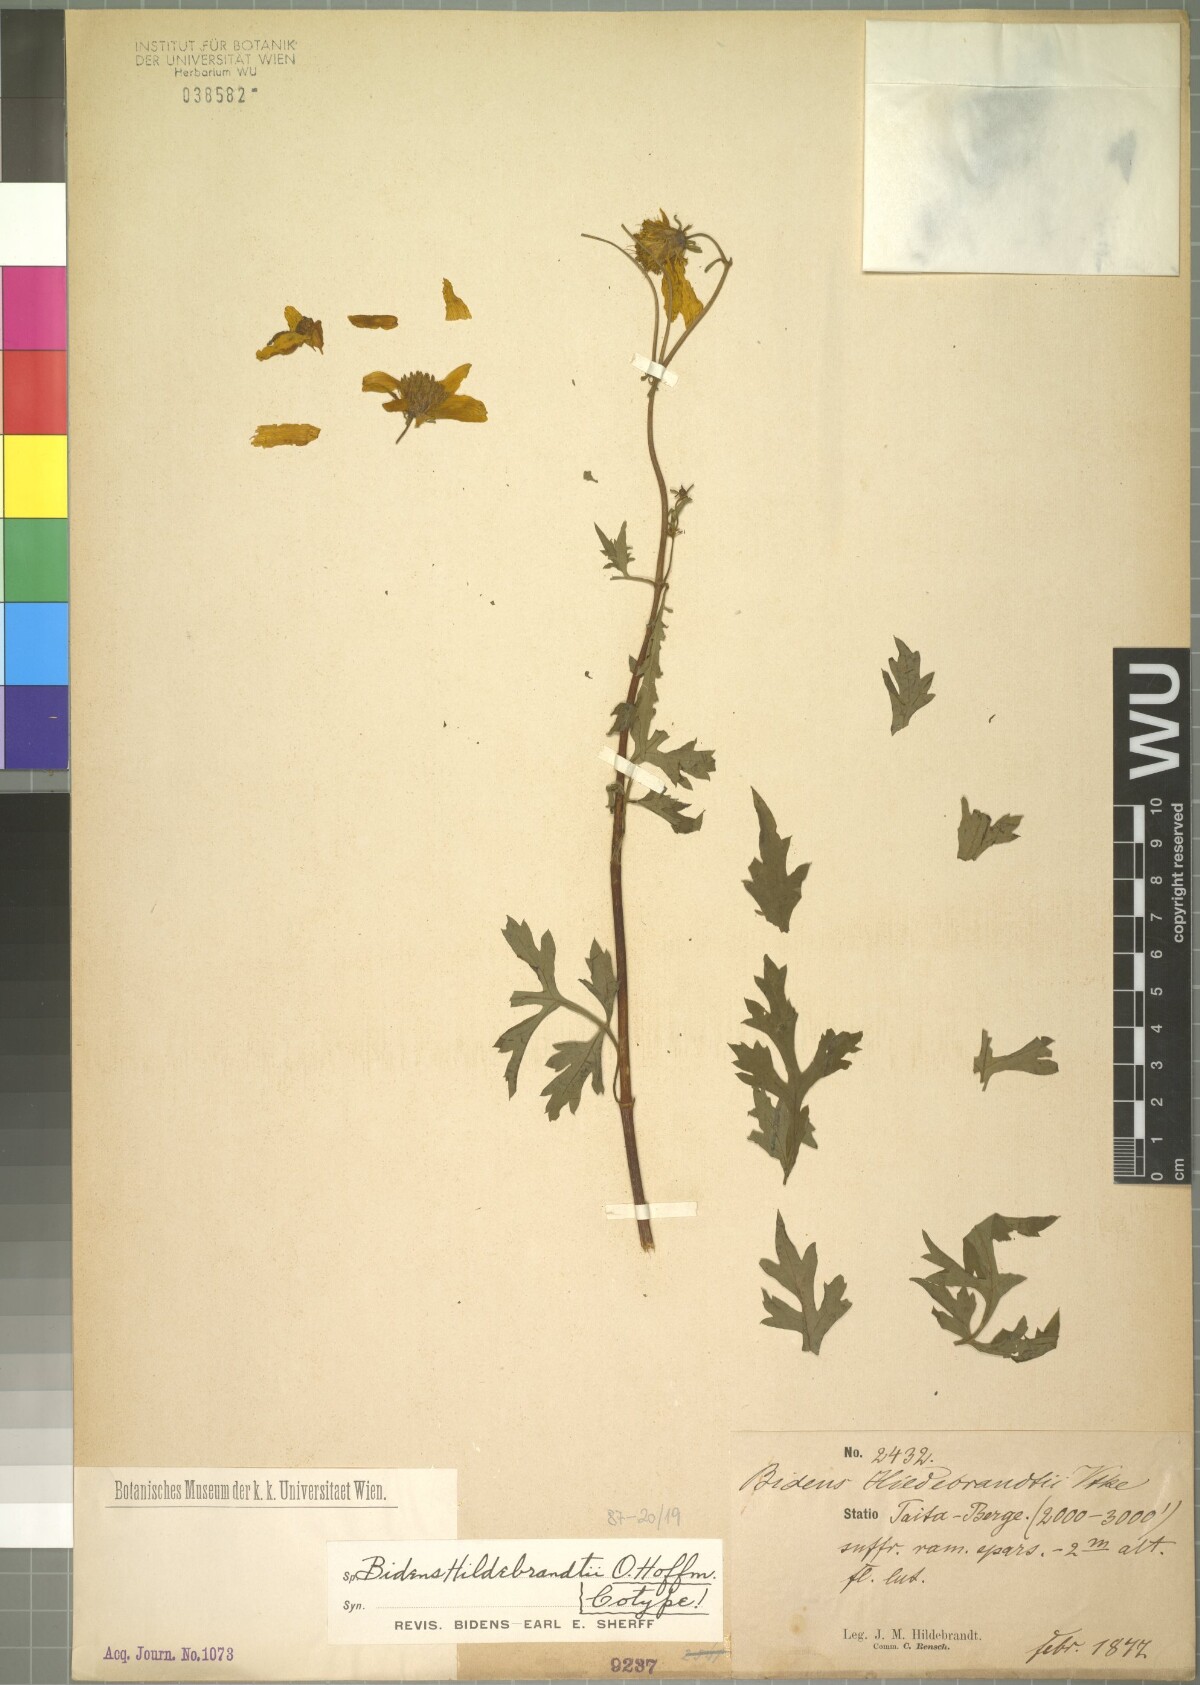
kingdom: Plantae
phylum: Tracheophyta
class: Magnoliopsida
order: Asterales
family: Asteraceae
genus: Bidens
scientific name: Bidens hildebrandtii
